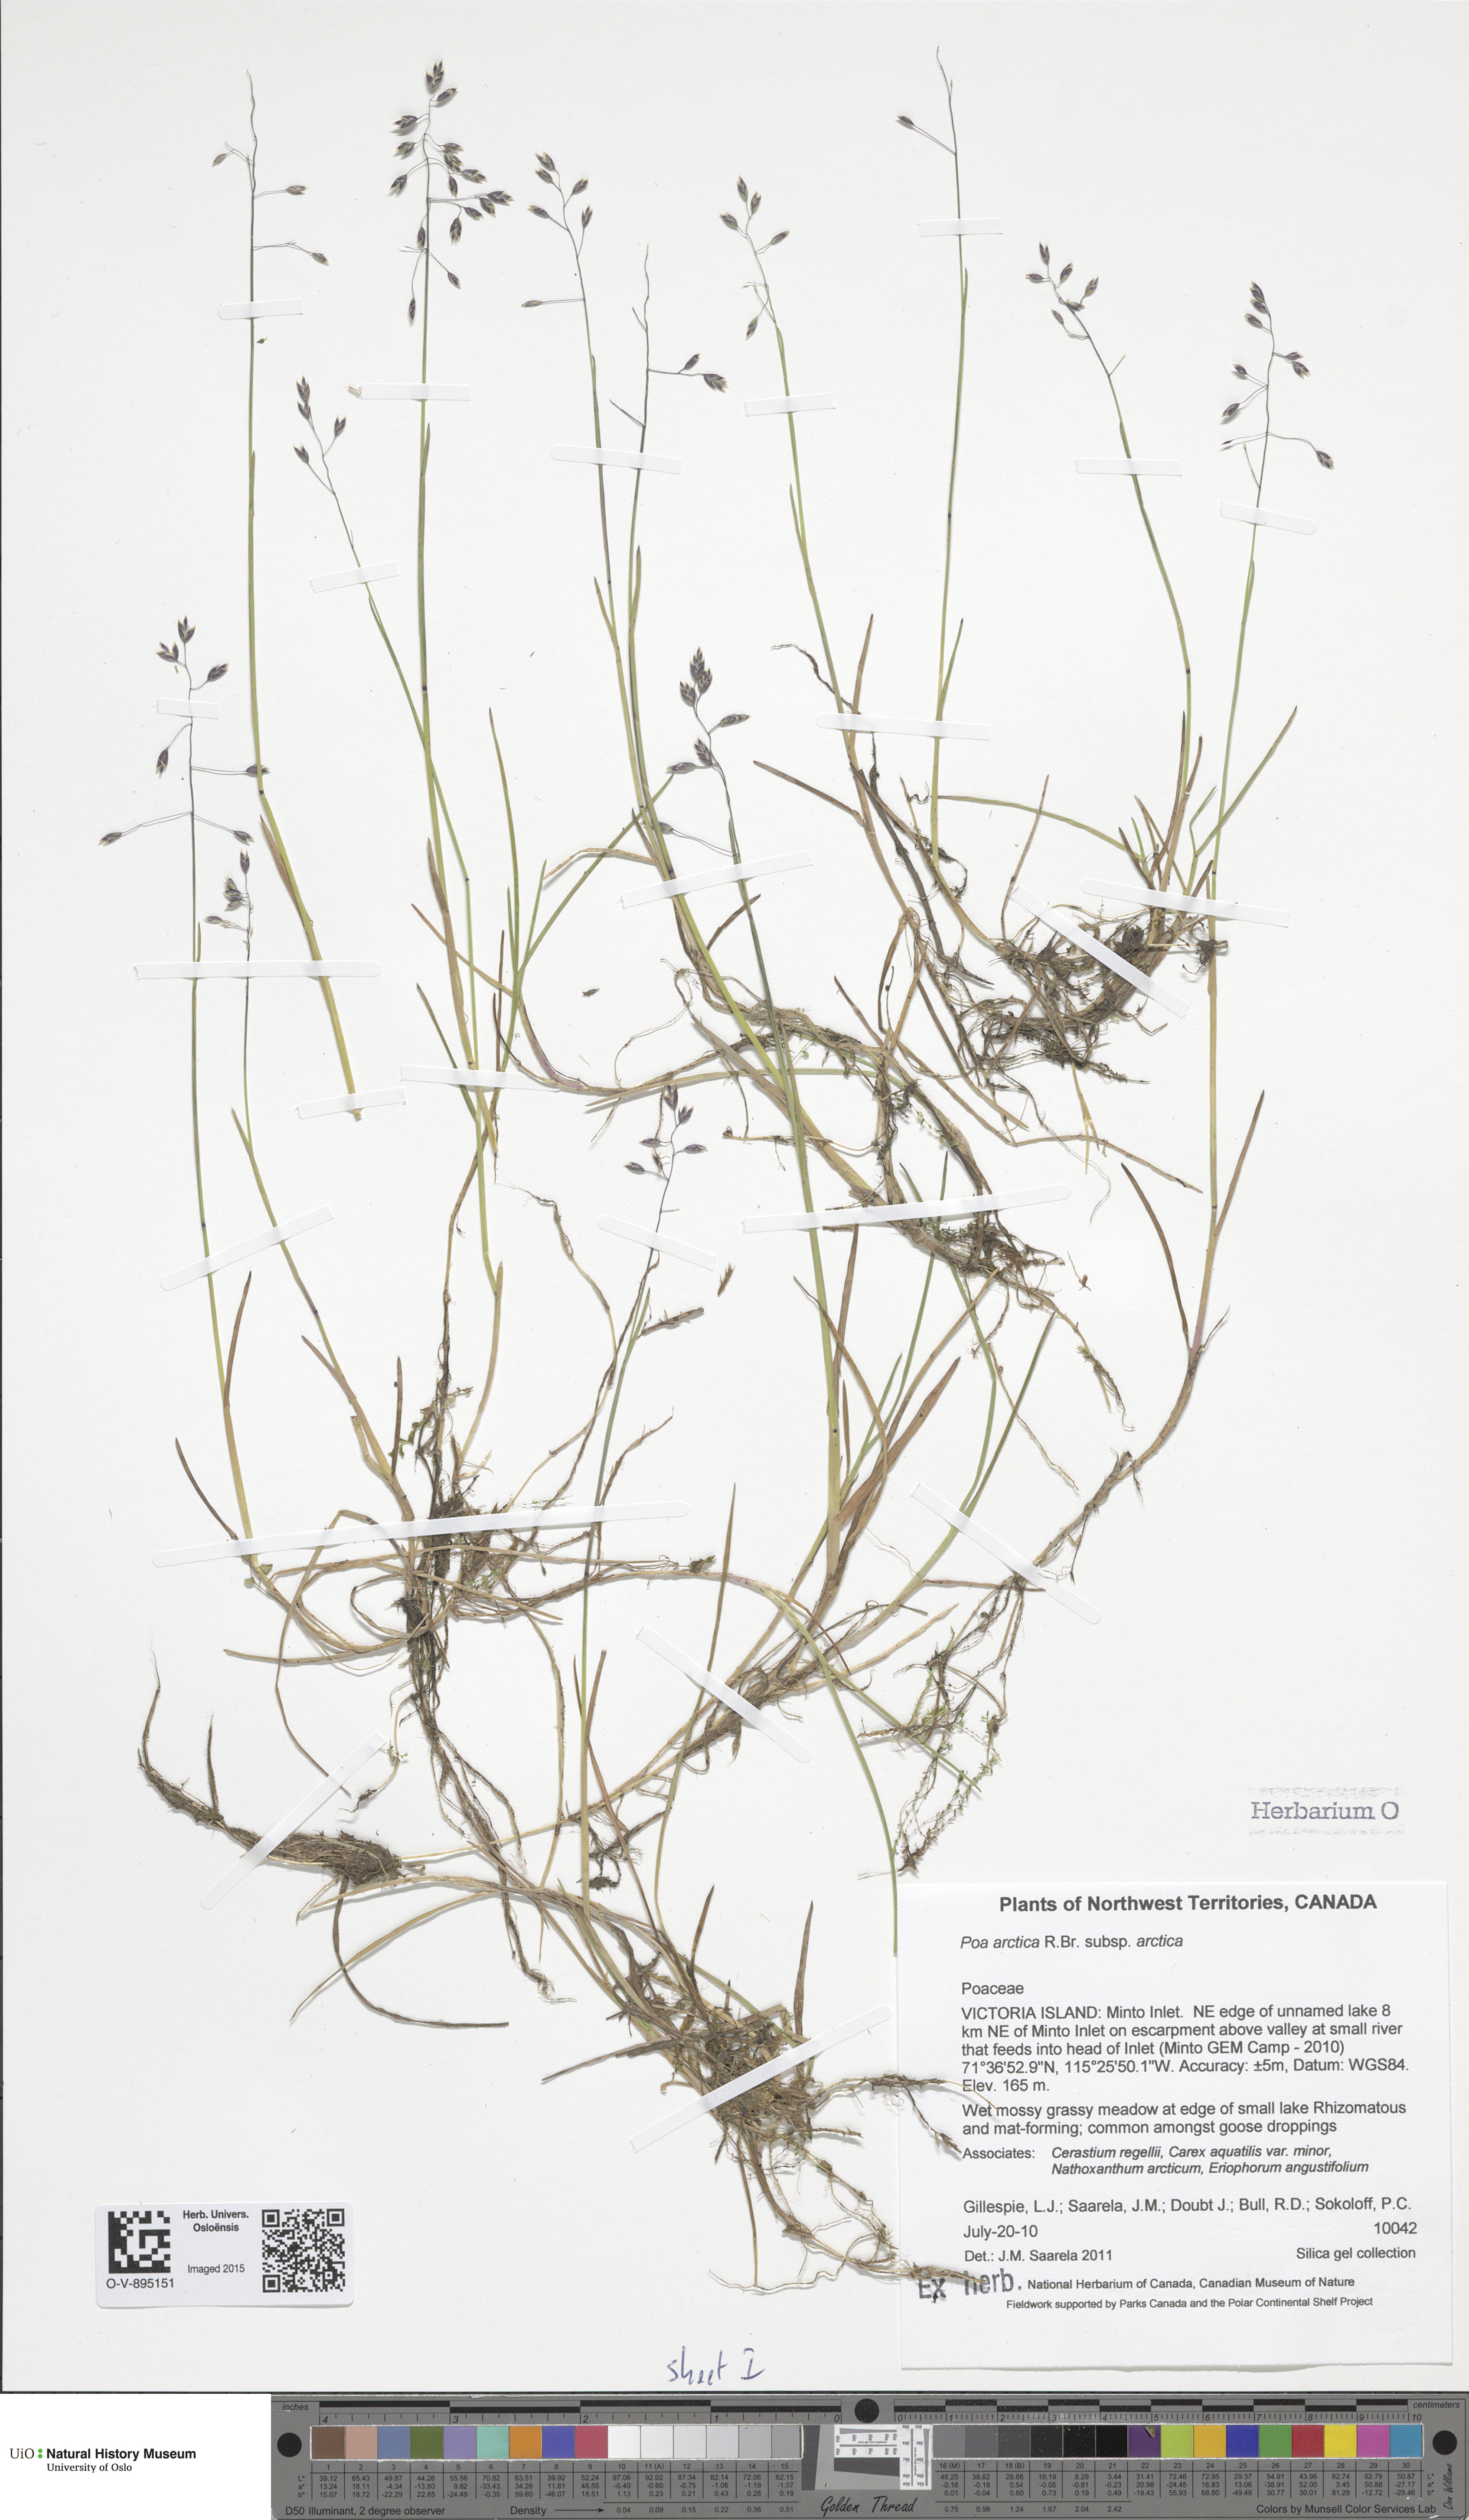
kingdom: Plantae
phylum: Tracheophyta
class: Liliopsida
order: Poales
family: Poaceae
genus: Poa
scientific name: Poa arctica
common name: Arctic bluegrass
